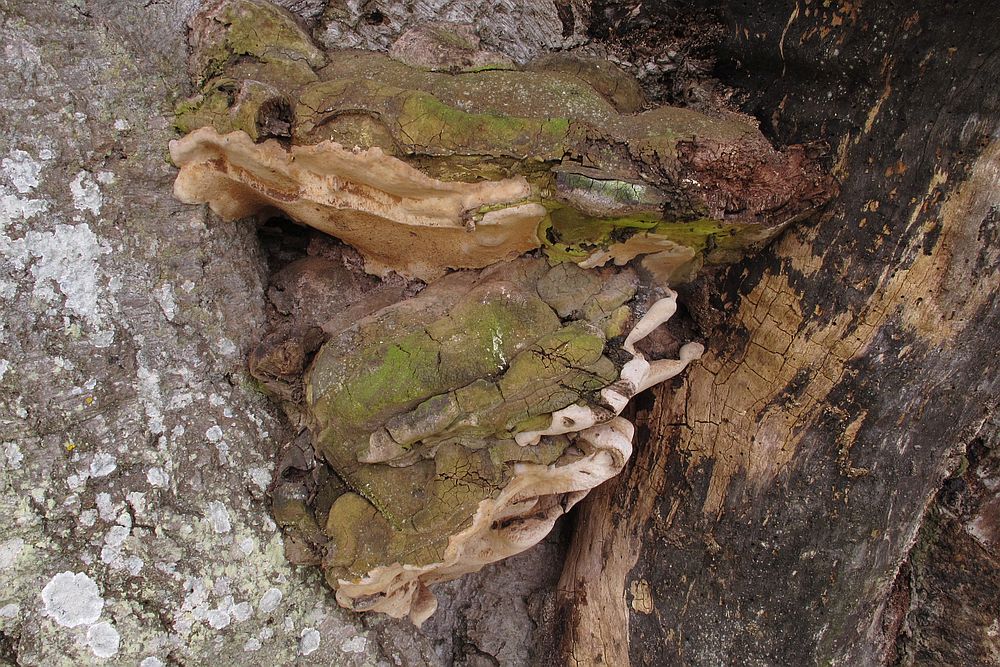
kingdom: Fungi
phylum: Basidiomycota
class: Agaricomycetes
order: Polyporales
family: Polyporaceae
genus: Ganoderma
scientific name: Ganoderma pfeifferi
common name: kobberrød lakporesvamp
